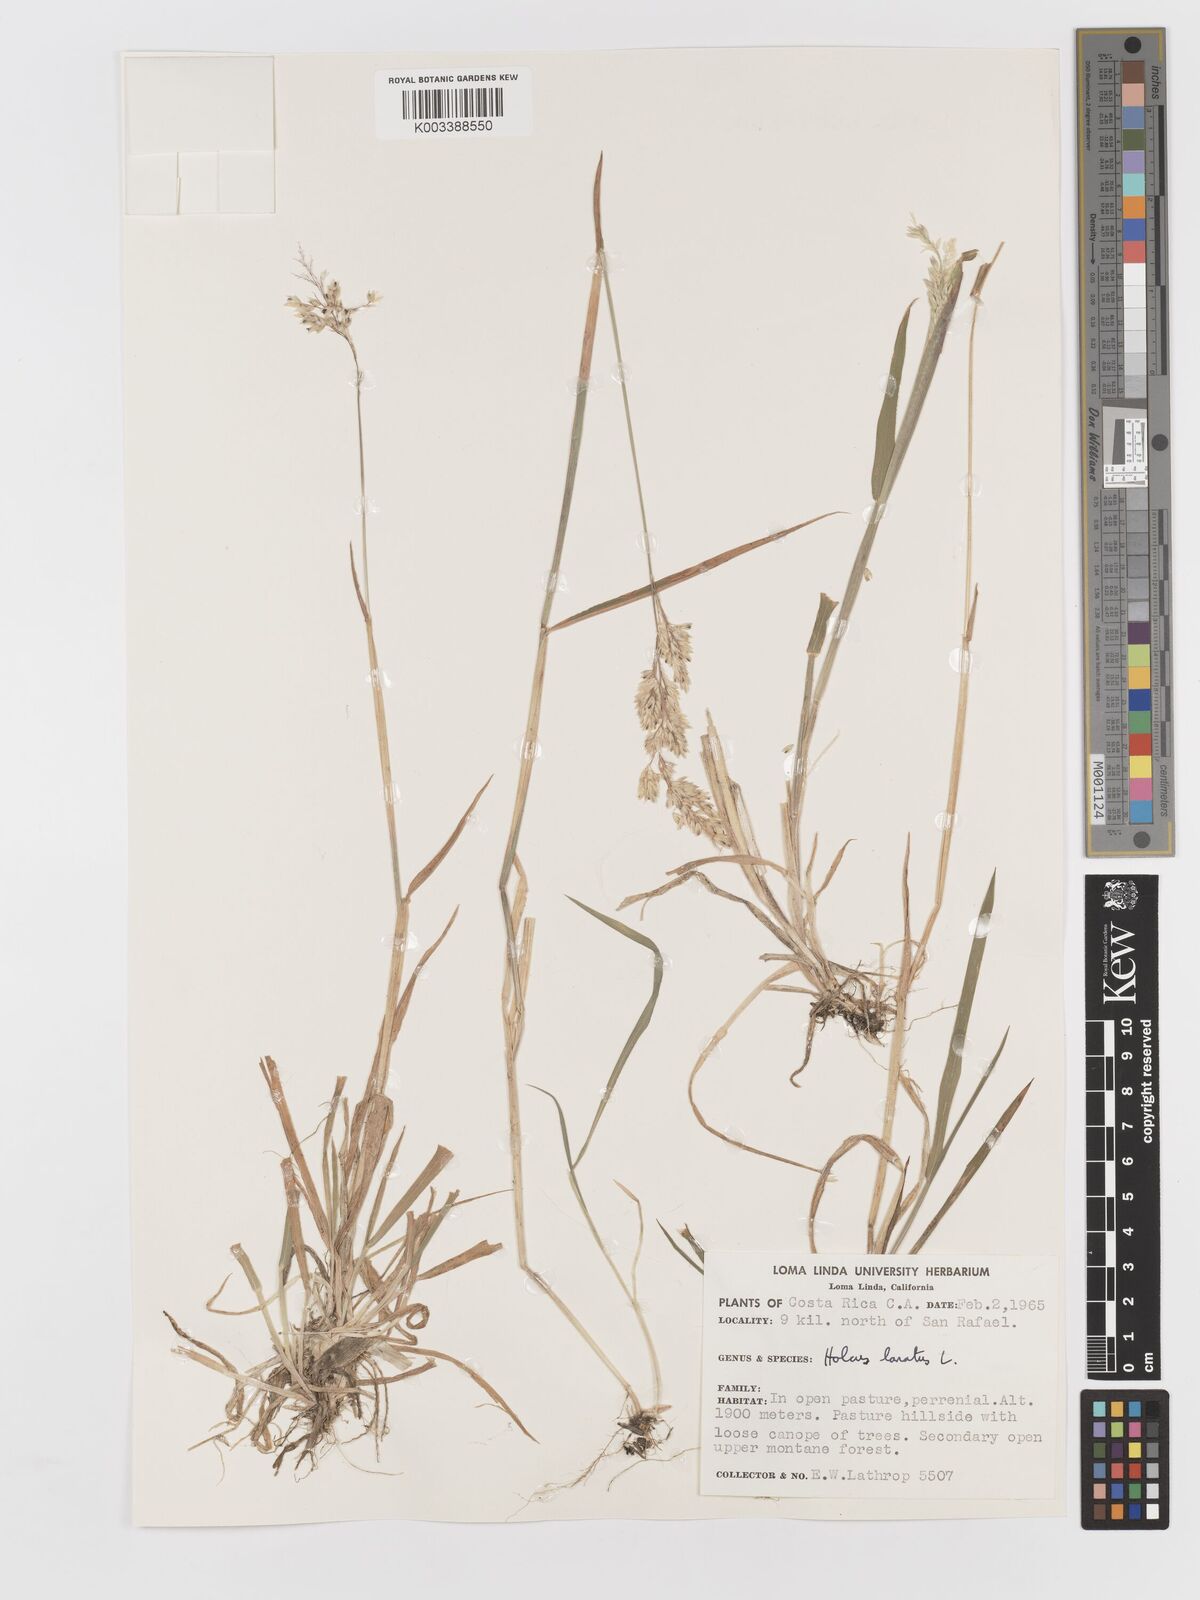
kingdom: Plantae
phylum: Tracheophyta
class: Liliopsida
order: Poales
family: Poaceae
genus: Holcus
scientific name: Holcus lanatus
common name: Yorkshire-fog
